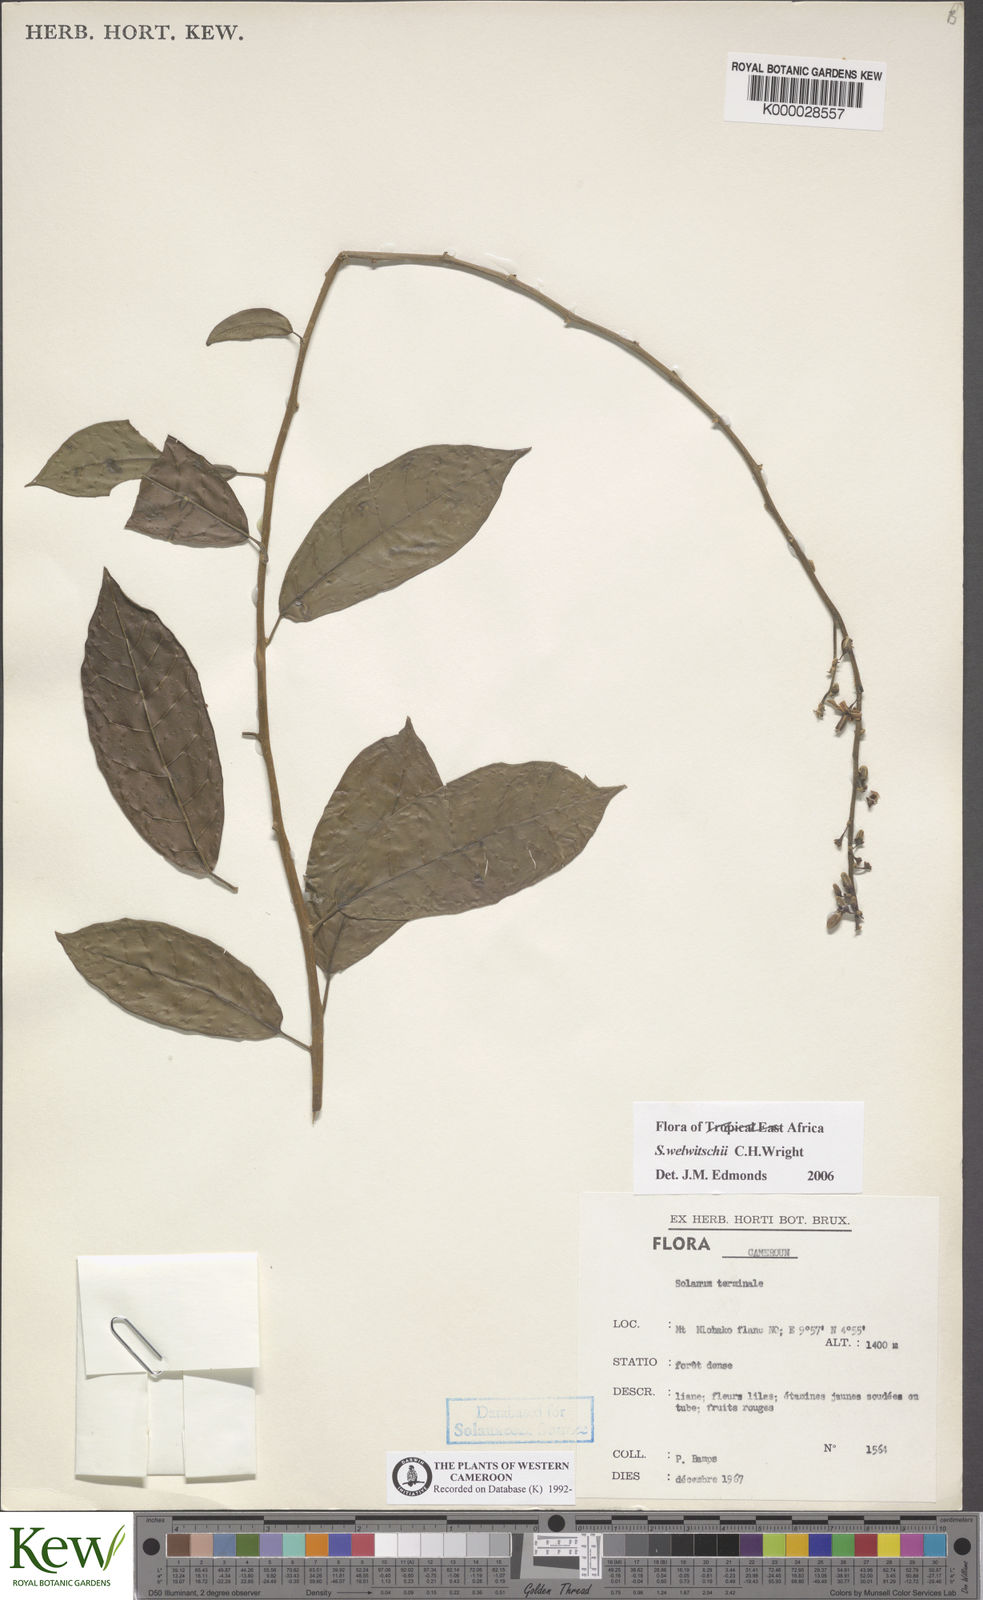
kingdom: Plantae
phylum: Tracheophyta
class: Magnoliopsida
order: Solanales
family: Solanaceae
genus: Solanum
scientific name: Solanum terminale
